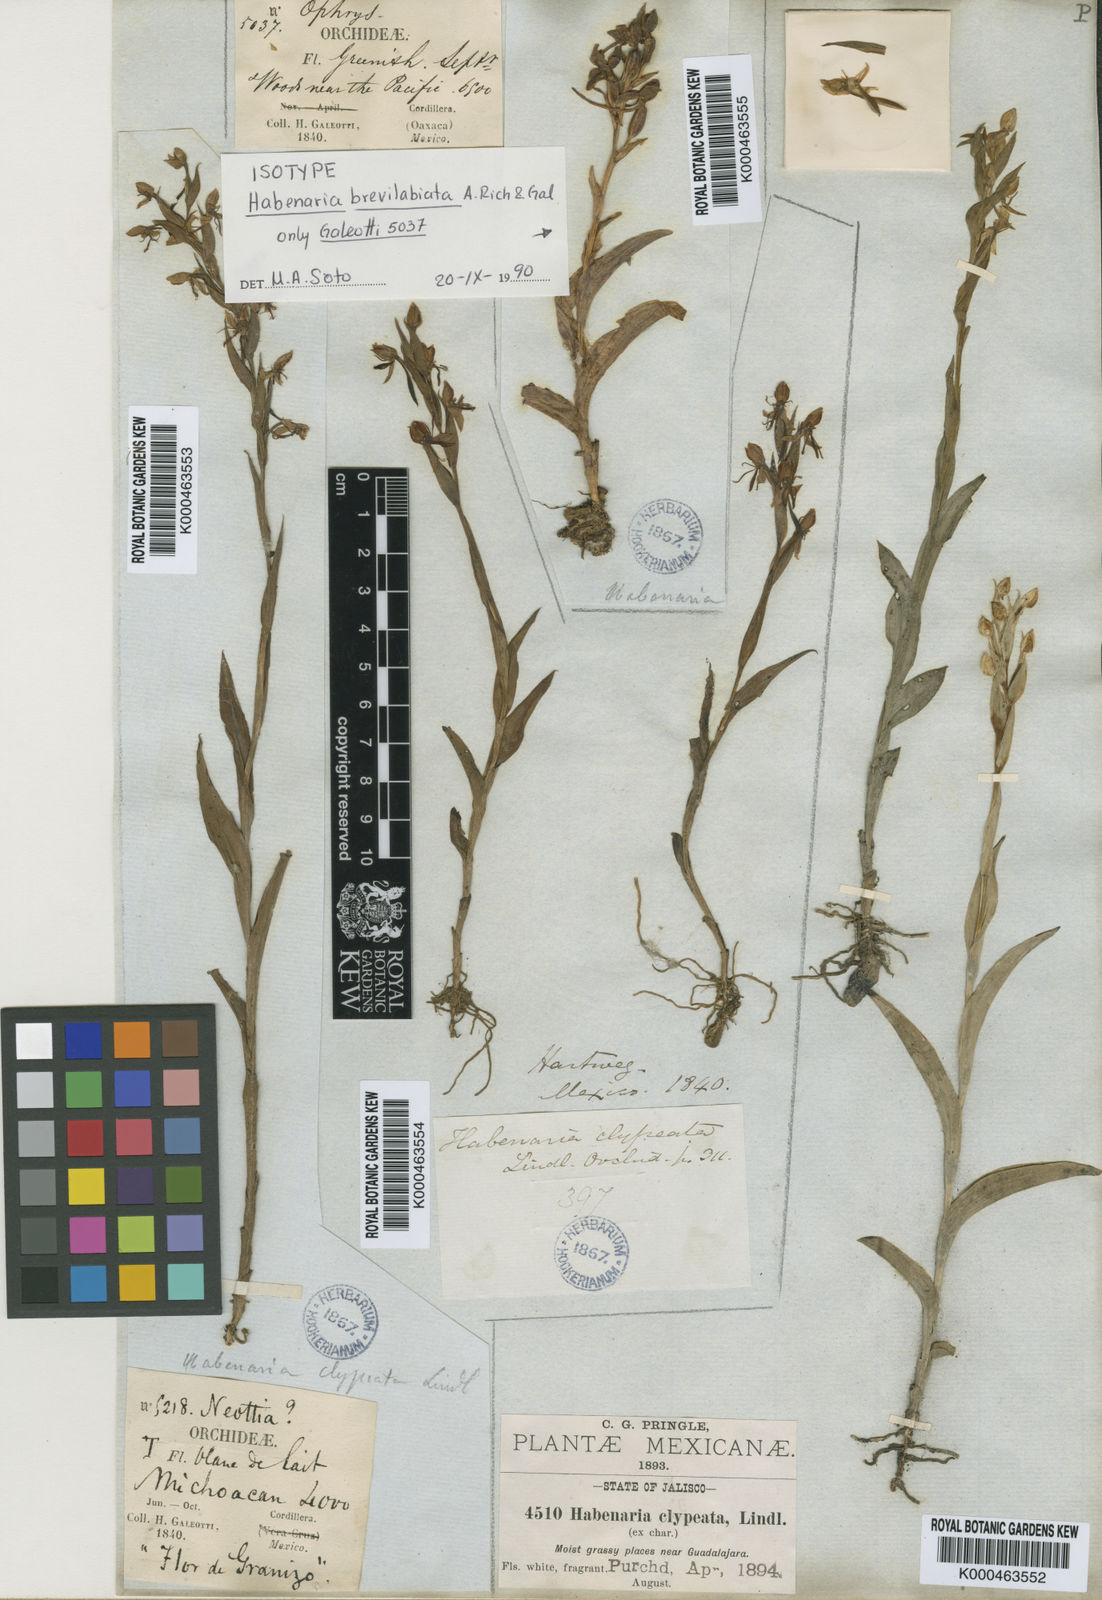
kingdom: Plantae
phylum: Tracheophyta
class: Liliopsida
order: Asparagales
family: Orchidaceae
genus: Habenaria
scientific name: Habenaria clypeata
